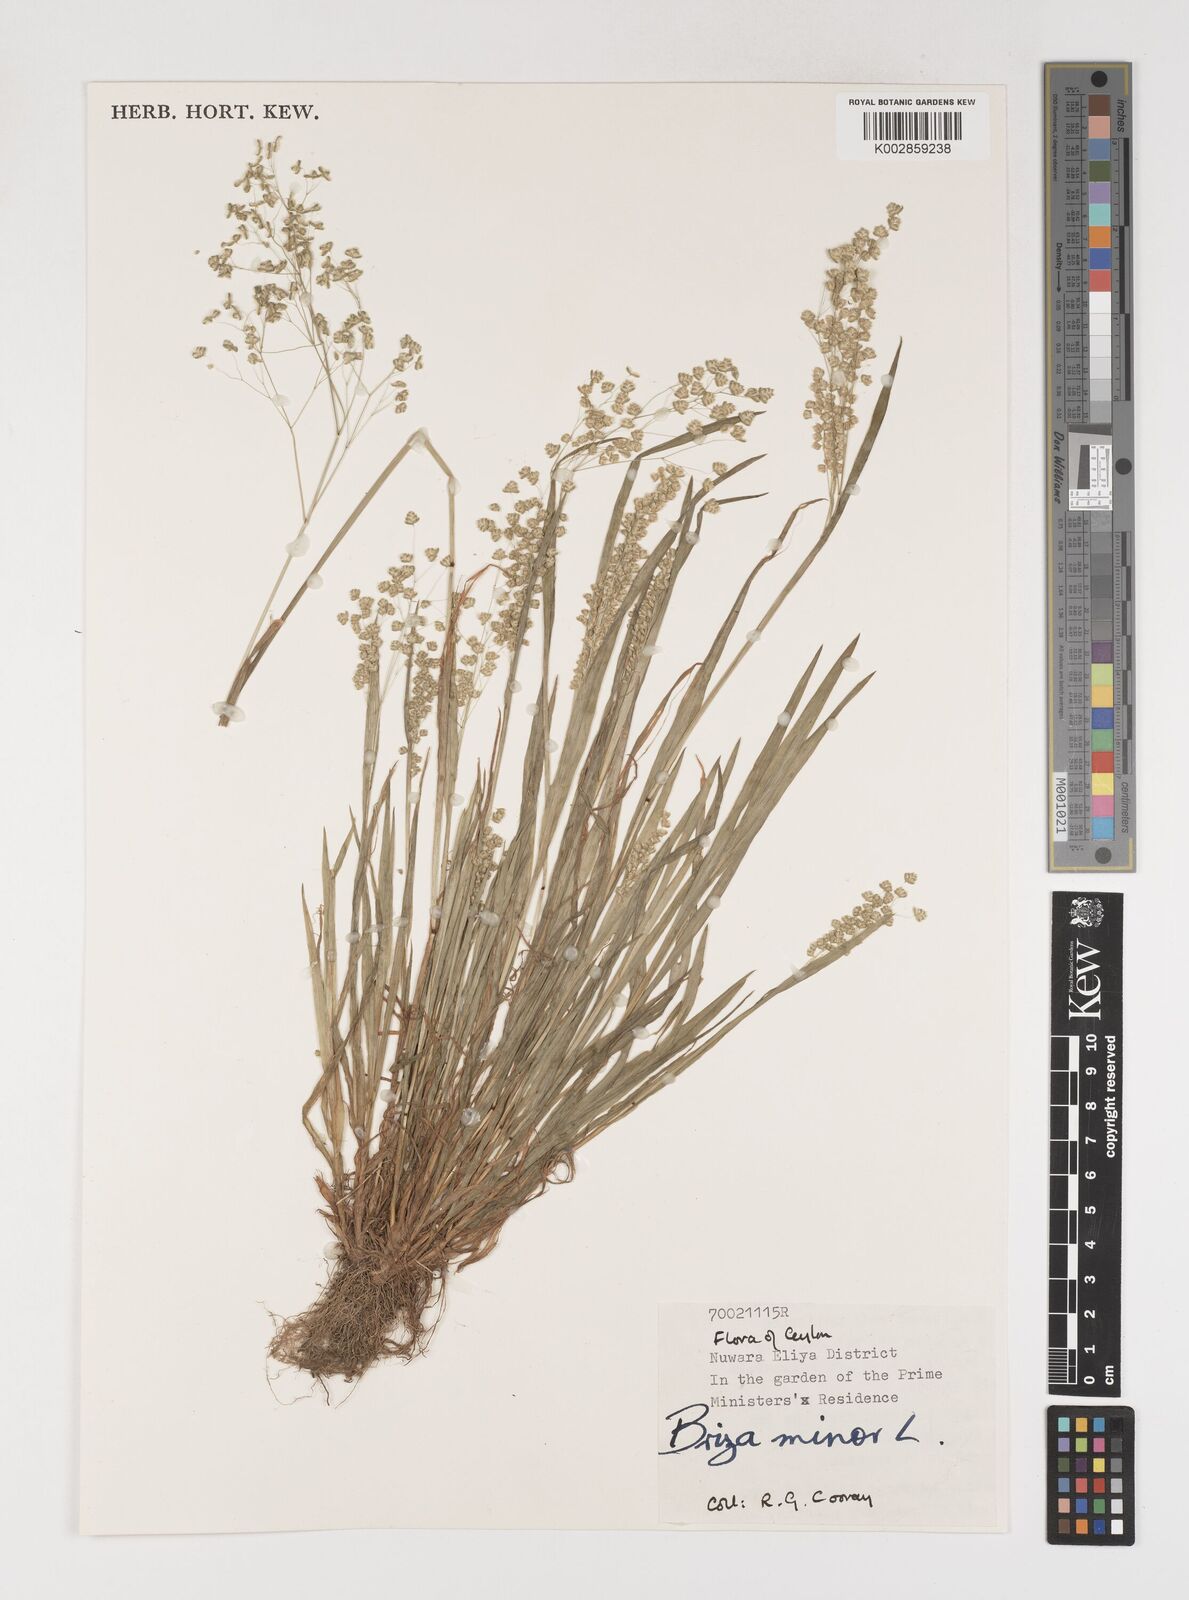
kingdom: Plantae
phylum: Tracheophyta
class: Liliopsida
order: Poales
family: Poaceae
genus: Briza
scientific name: Briza minor
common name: Lesser quaking-grass
